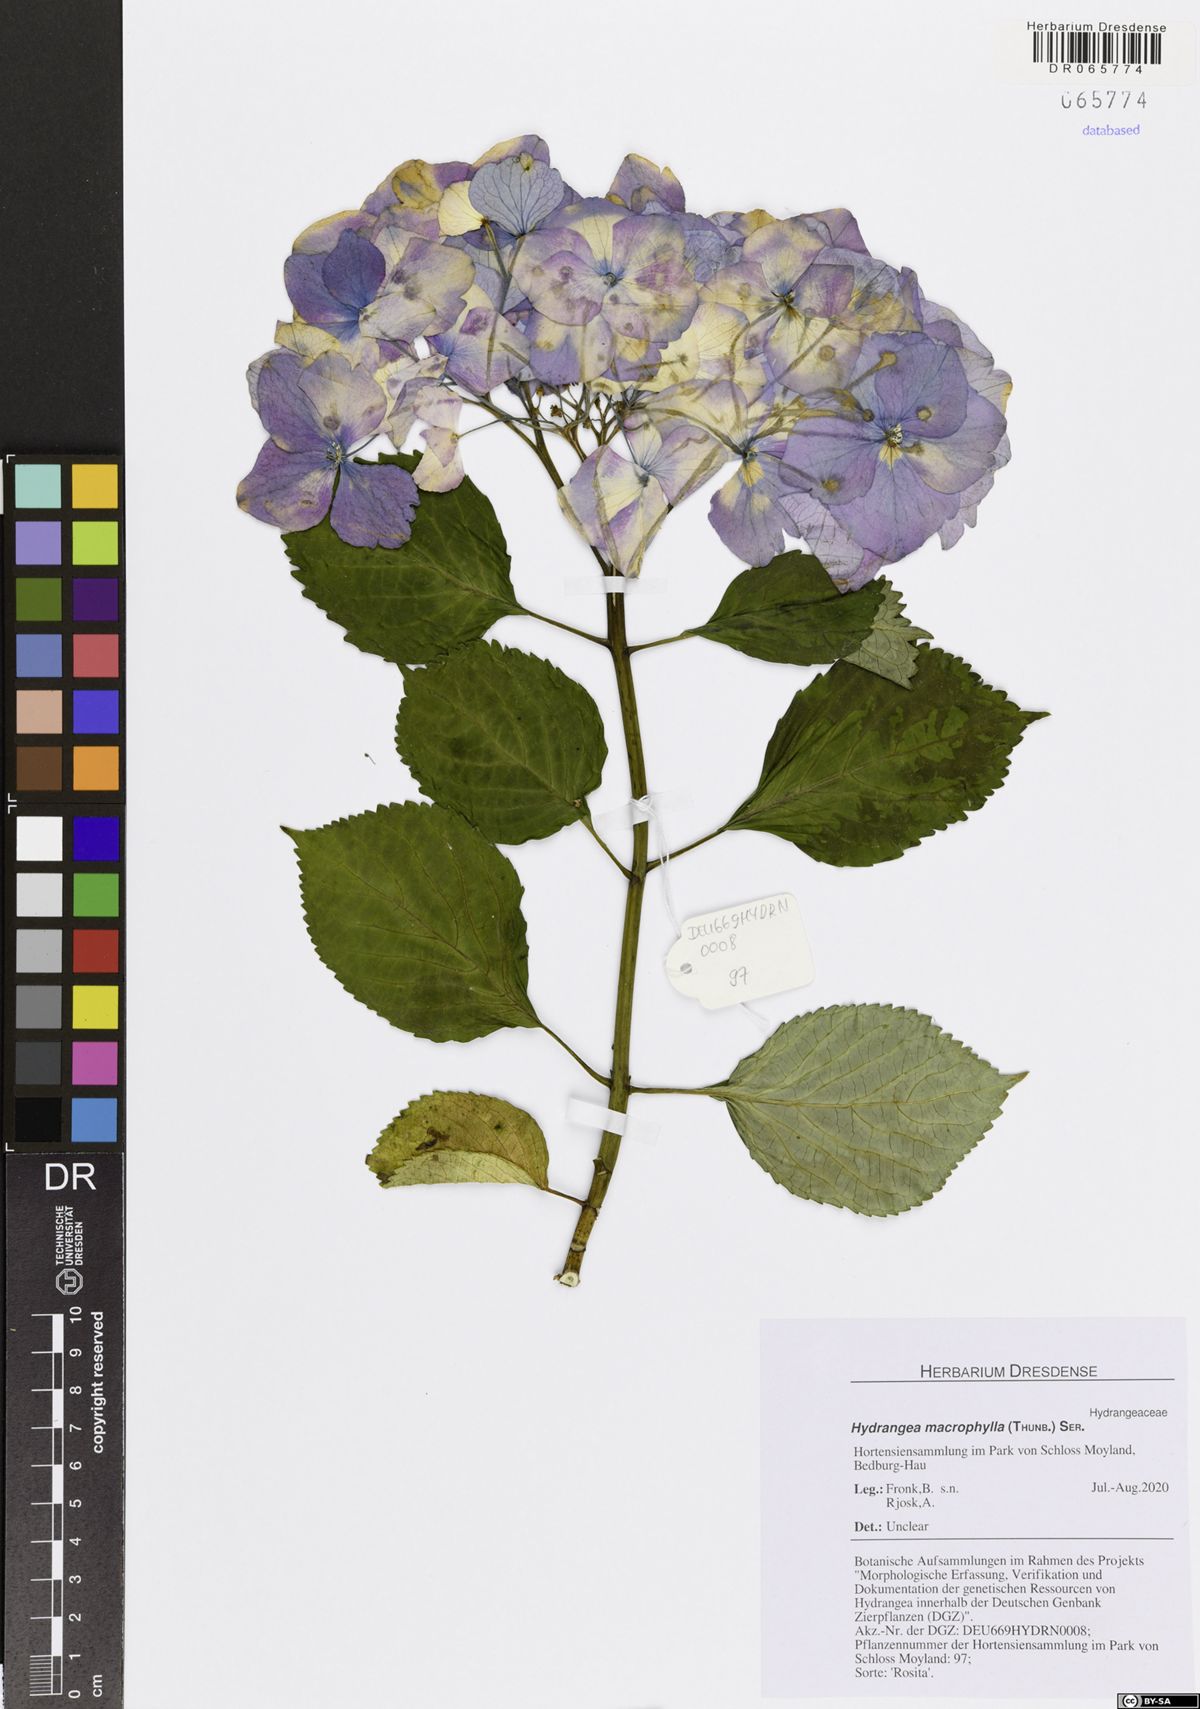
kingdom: Plantae
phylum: Tracheophyta
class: Magnoliopsida
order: Cornales
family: Hydrangeaceae
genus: Hydrangea
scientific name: Hydrangea macrophylla
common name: Hydrangea
